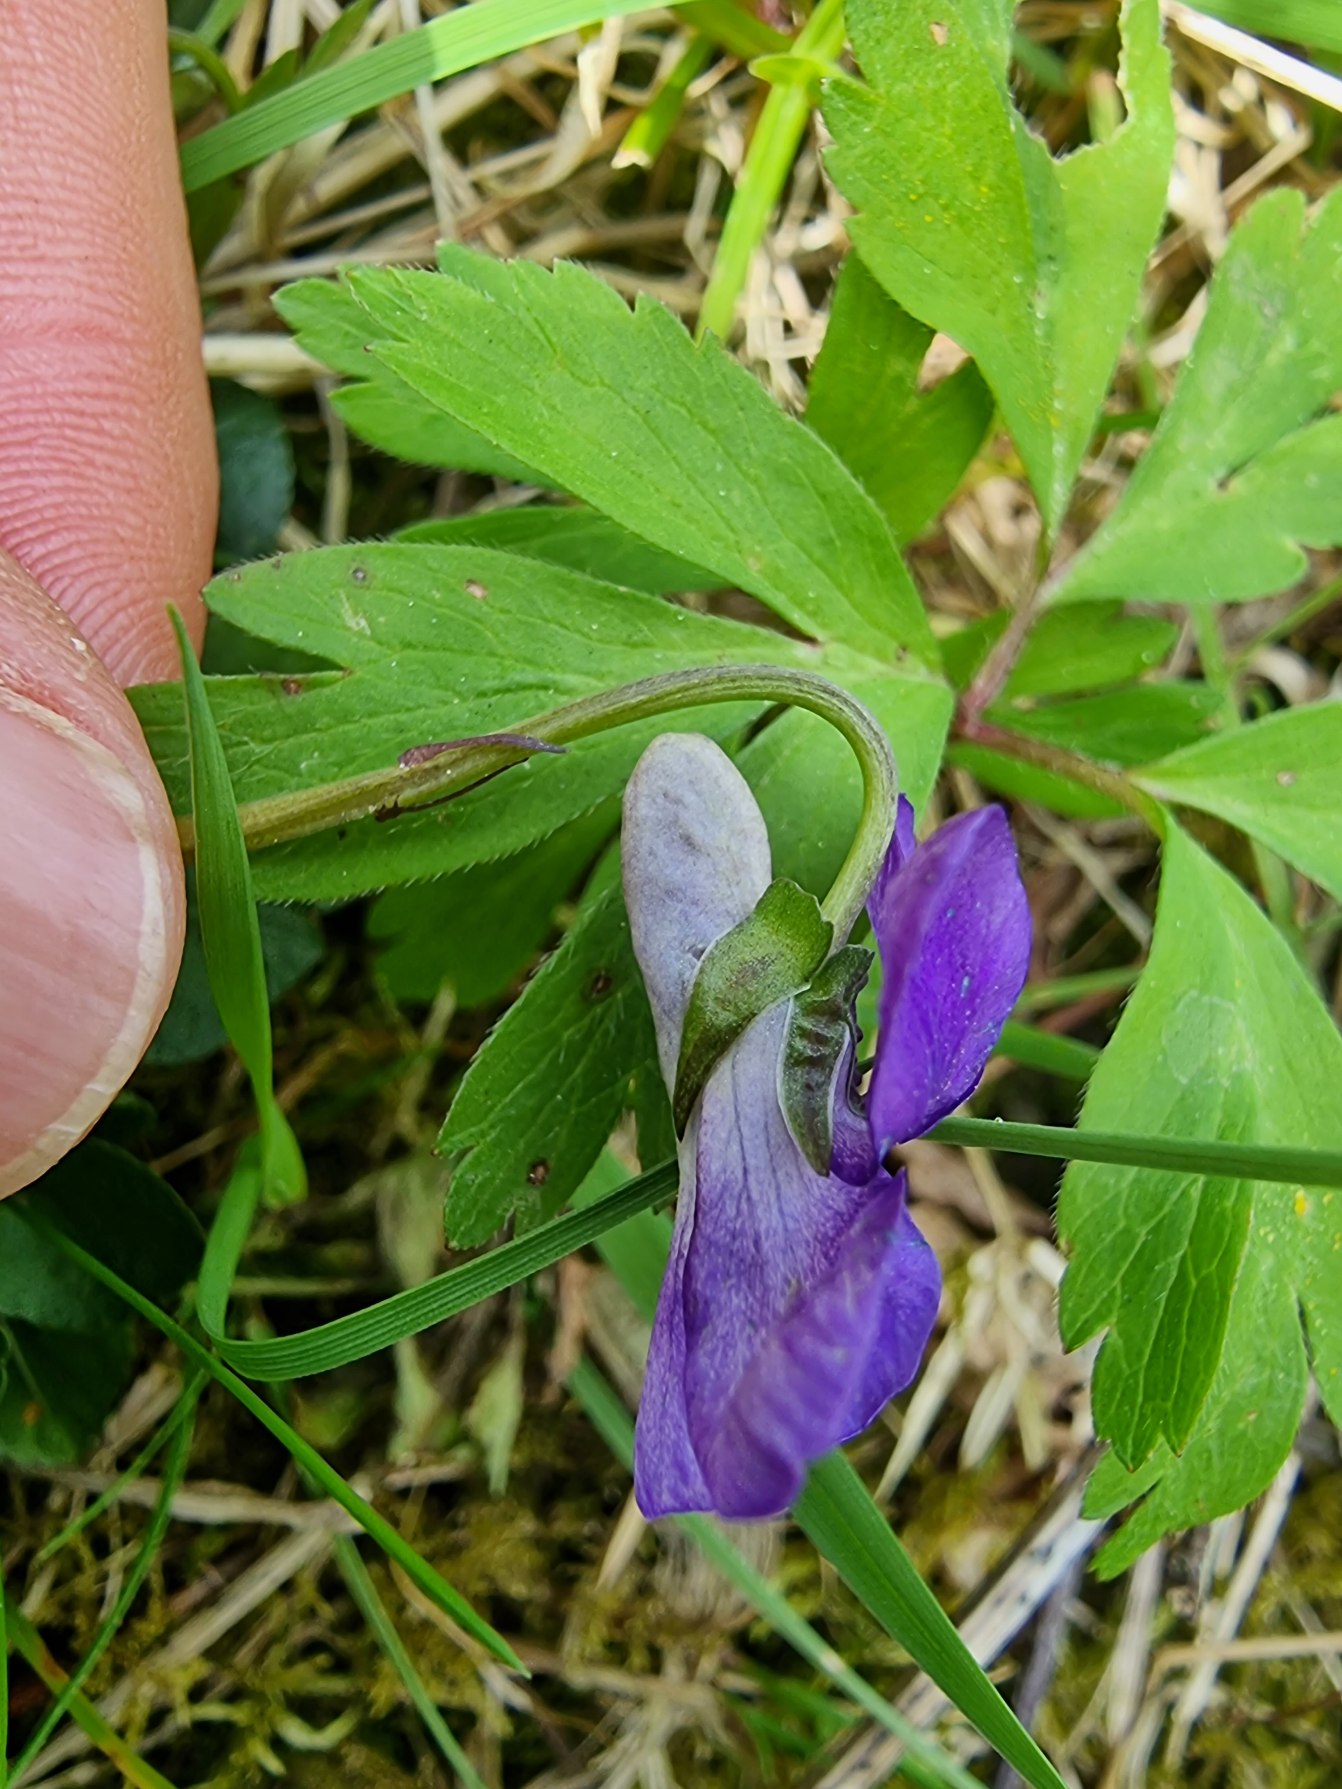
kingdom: Plantae
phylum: Tracheophyta
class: Magnoliopsida
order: Malpighiales
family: Violaceae
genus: Viola
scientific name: Viola riviniana
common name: Krat-viol
